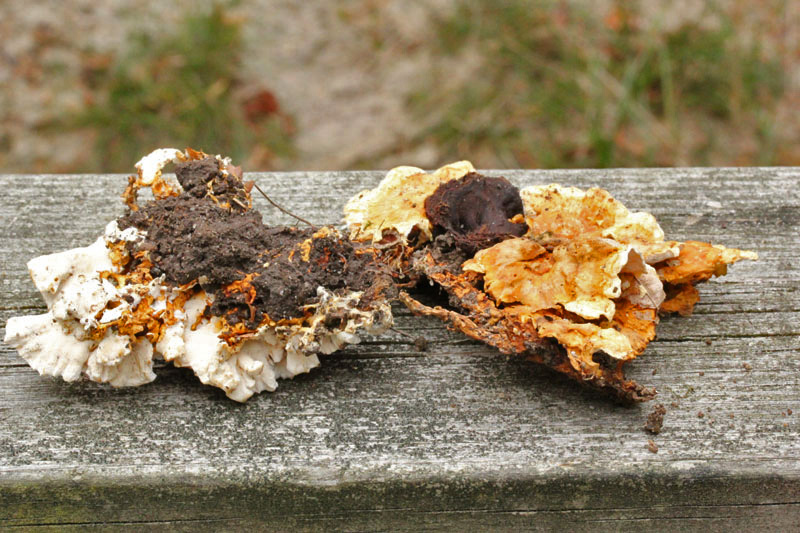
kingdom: Fungi
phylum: Basidiomycota
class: Agaricomycetes
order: Polyporales
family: Steccherinaceae
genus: Loweomyces
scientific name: Loweomyces wynneae
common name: krybende blødporesvamp
